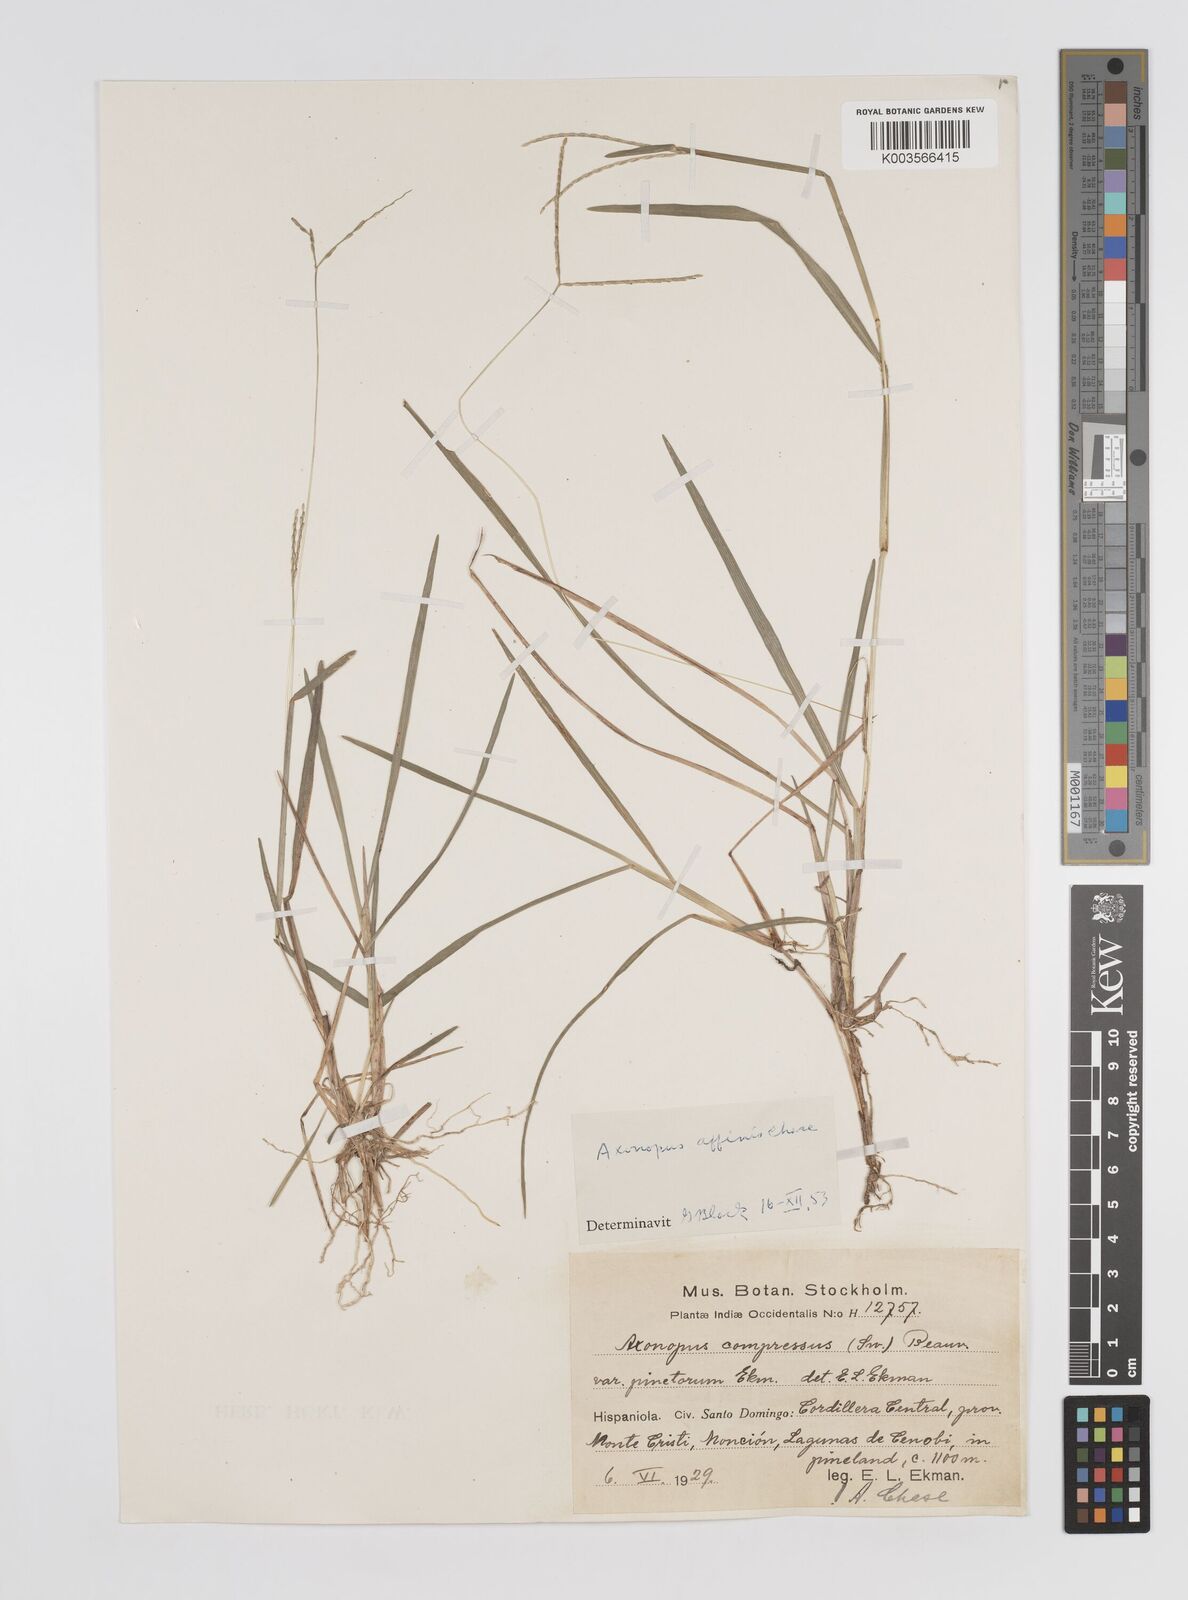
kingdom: Plantae
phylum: Tracheophyta
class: Liliopsida
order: Poales
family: Poaceae
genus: Axonopus
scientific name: Axonopus fissifolius
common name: Common carpetgrass
